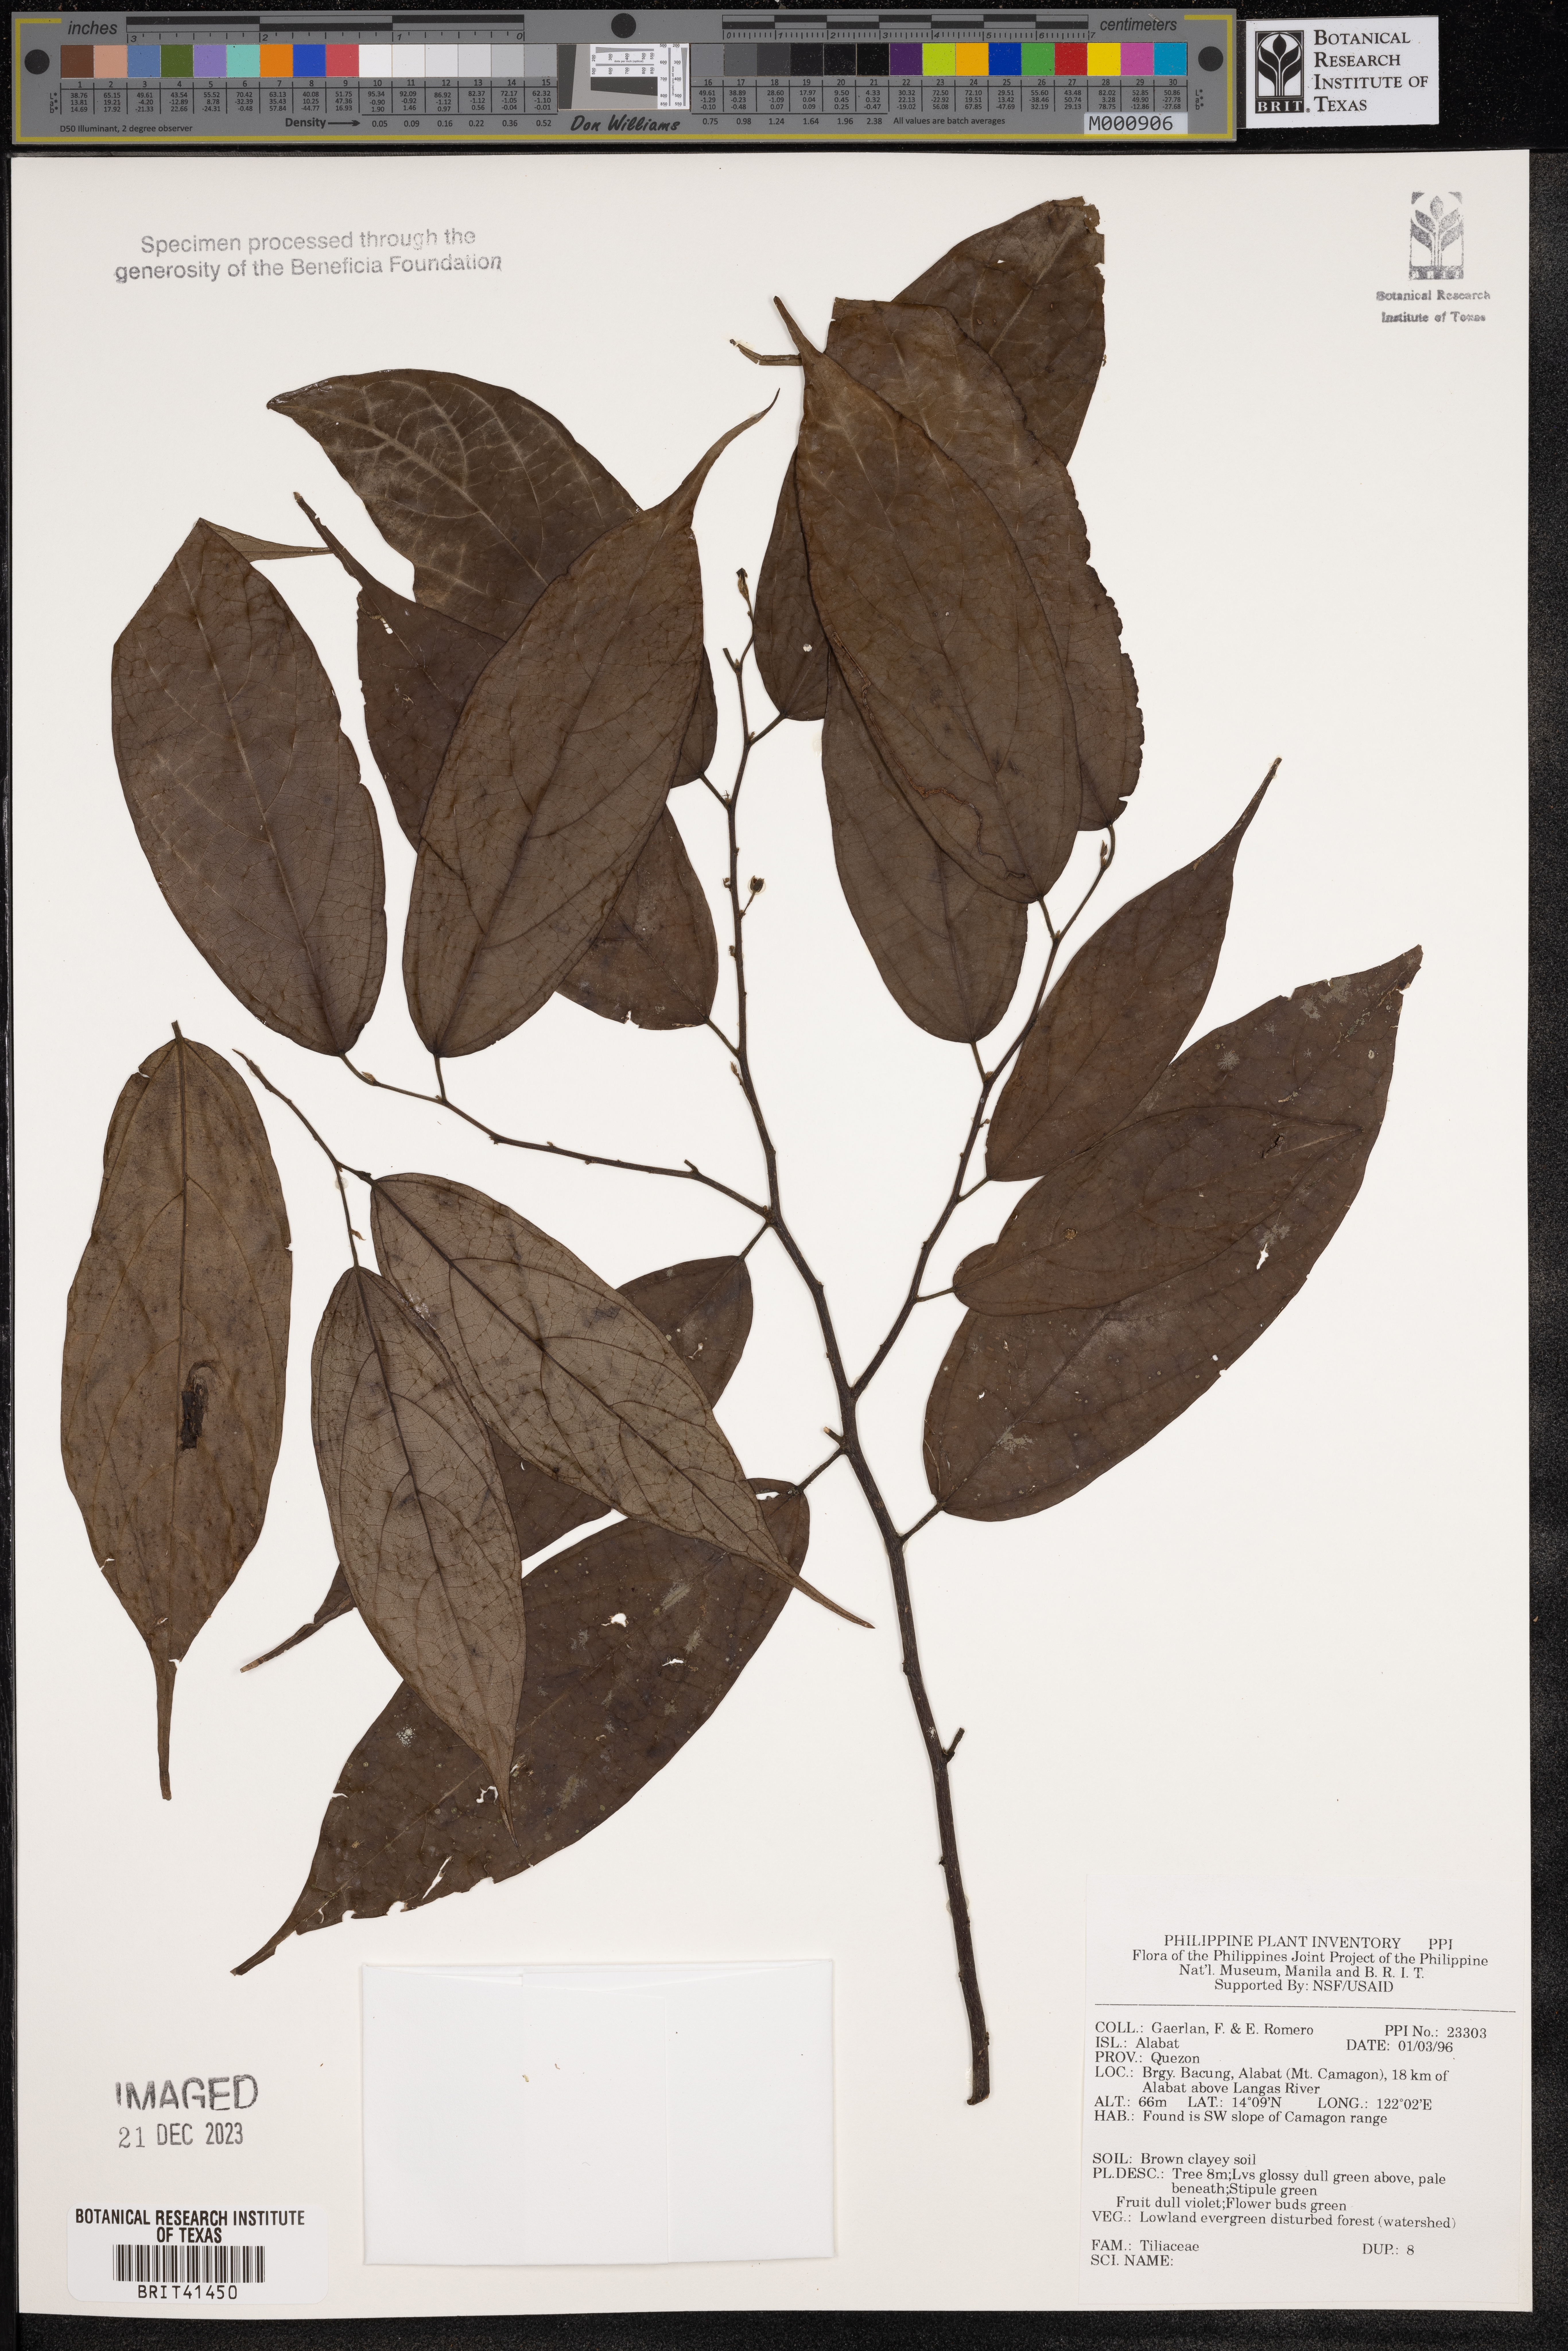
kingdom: Plantae
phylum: Tracheophyta
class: Magnoliopsida
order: Malvales
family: Tiliaceae
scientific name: Tiliaceae
